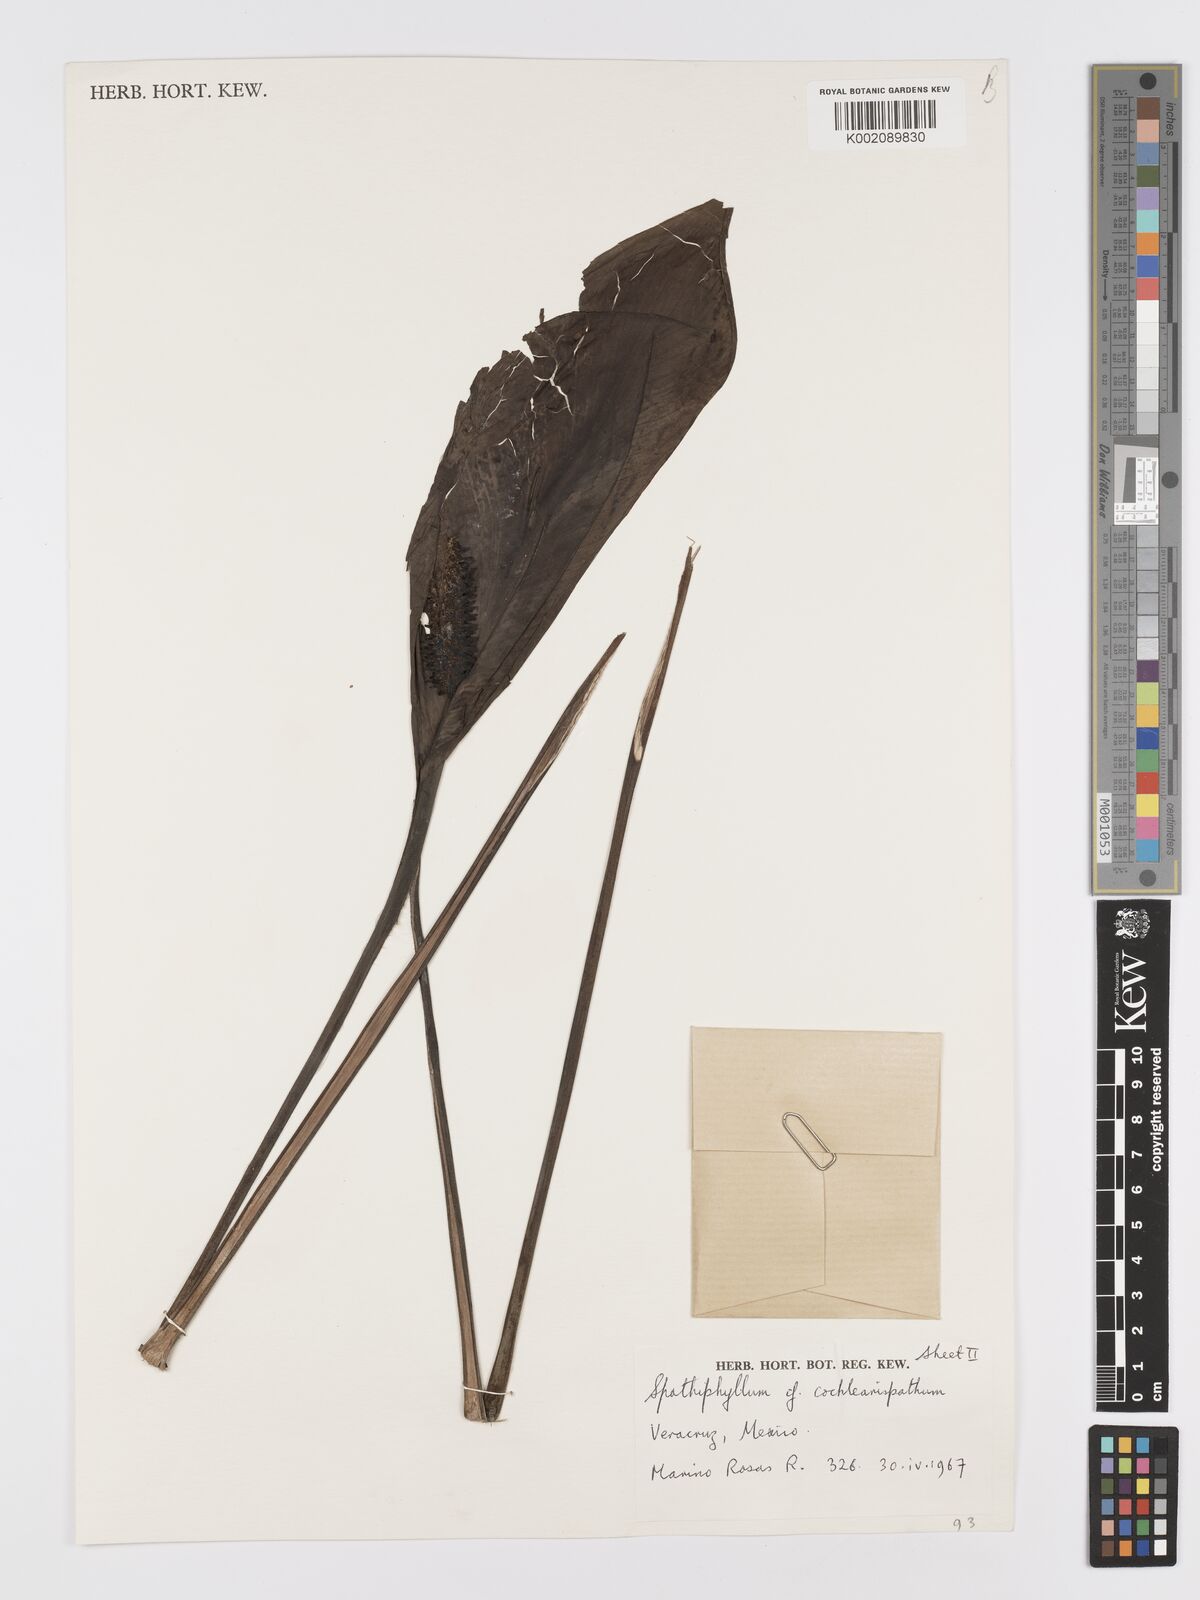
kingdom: Plantae
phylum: Tracheophyta
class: Liliopsida
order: Alismatales
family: Araceae
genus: Spathiphyllum
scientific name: Spathiphyllum cochlearispathum
